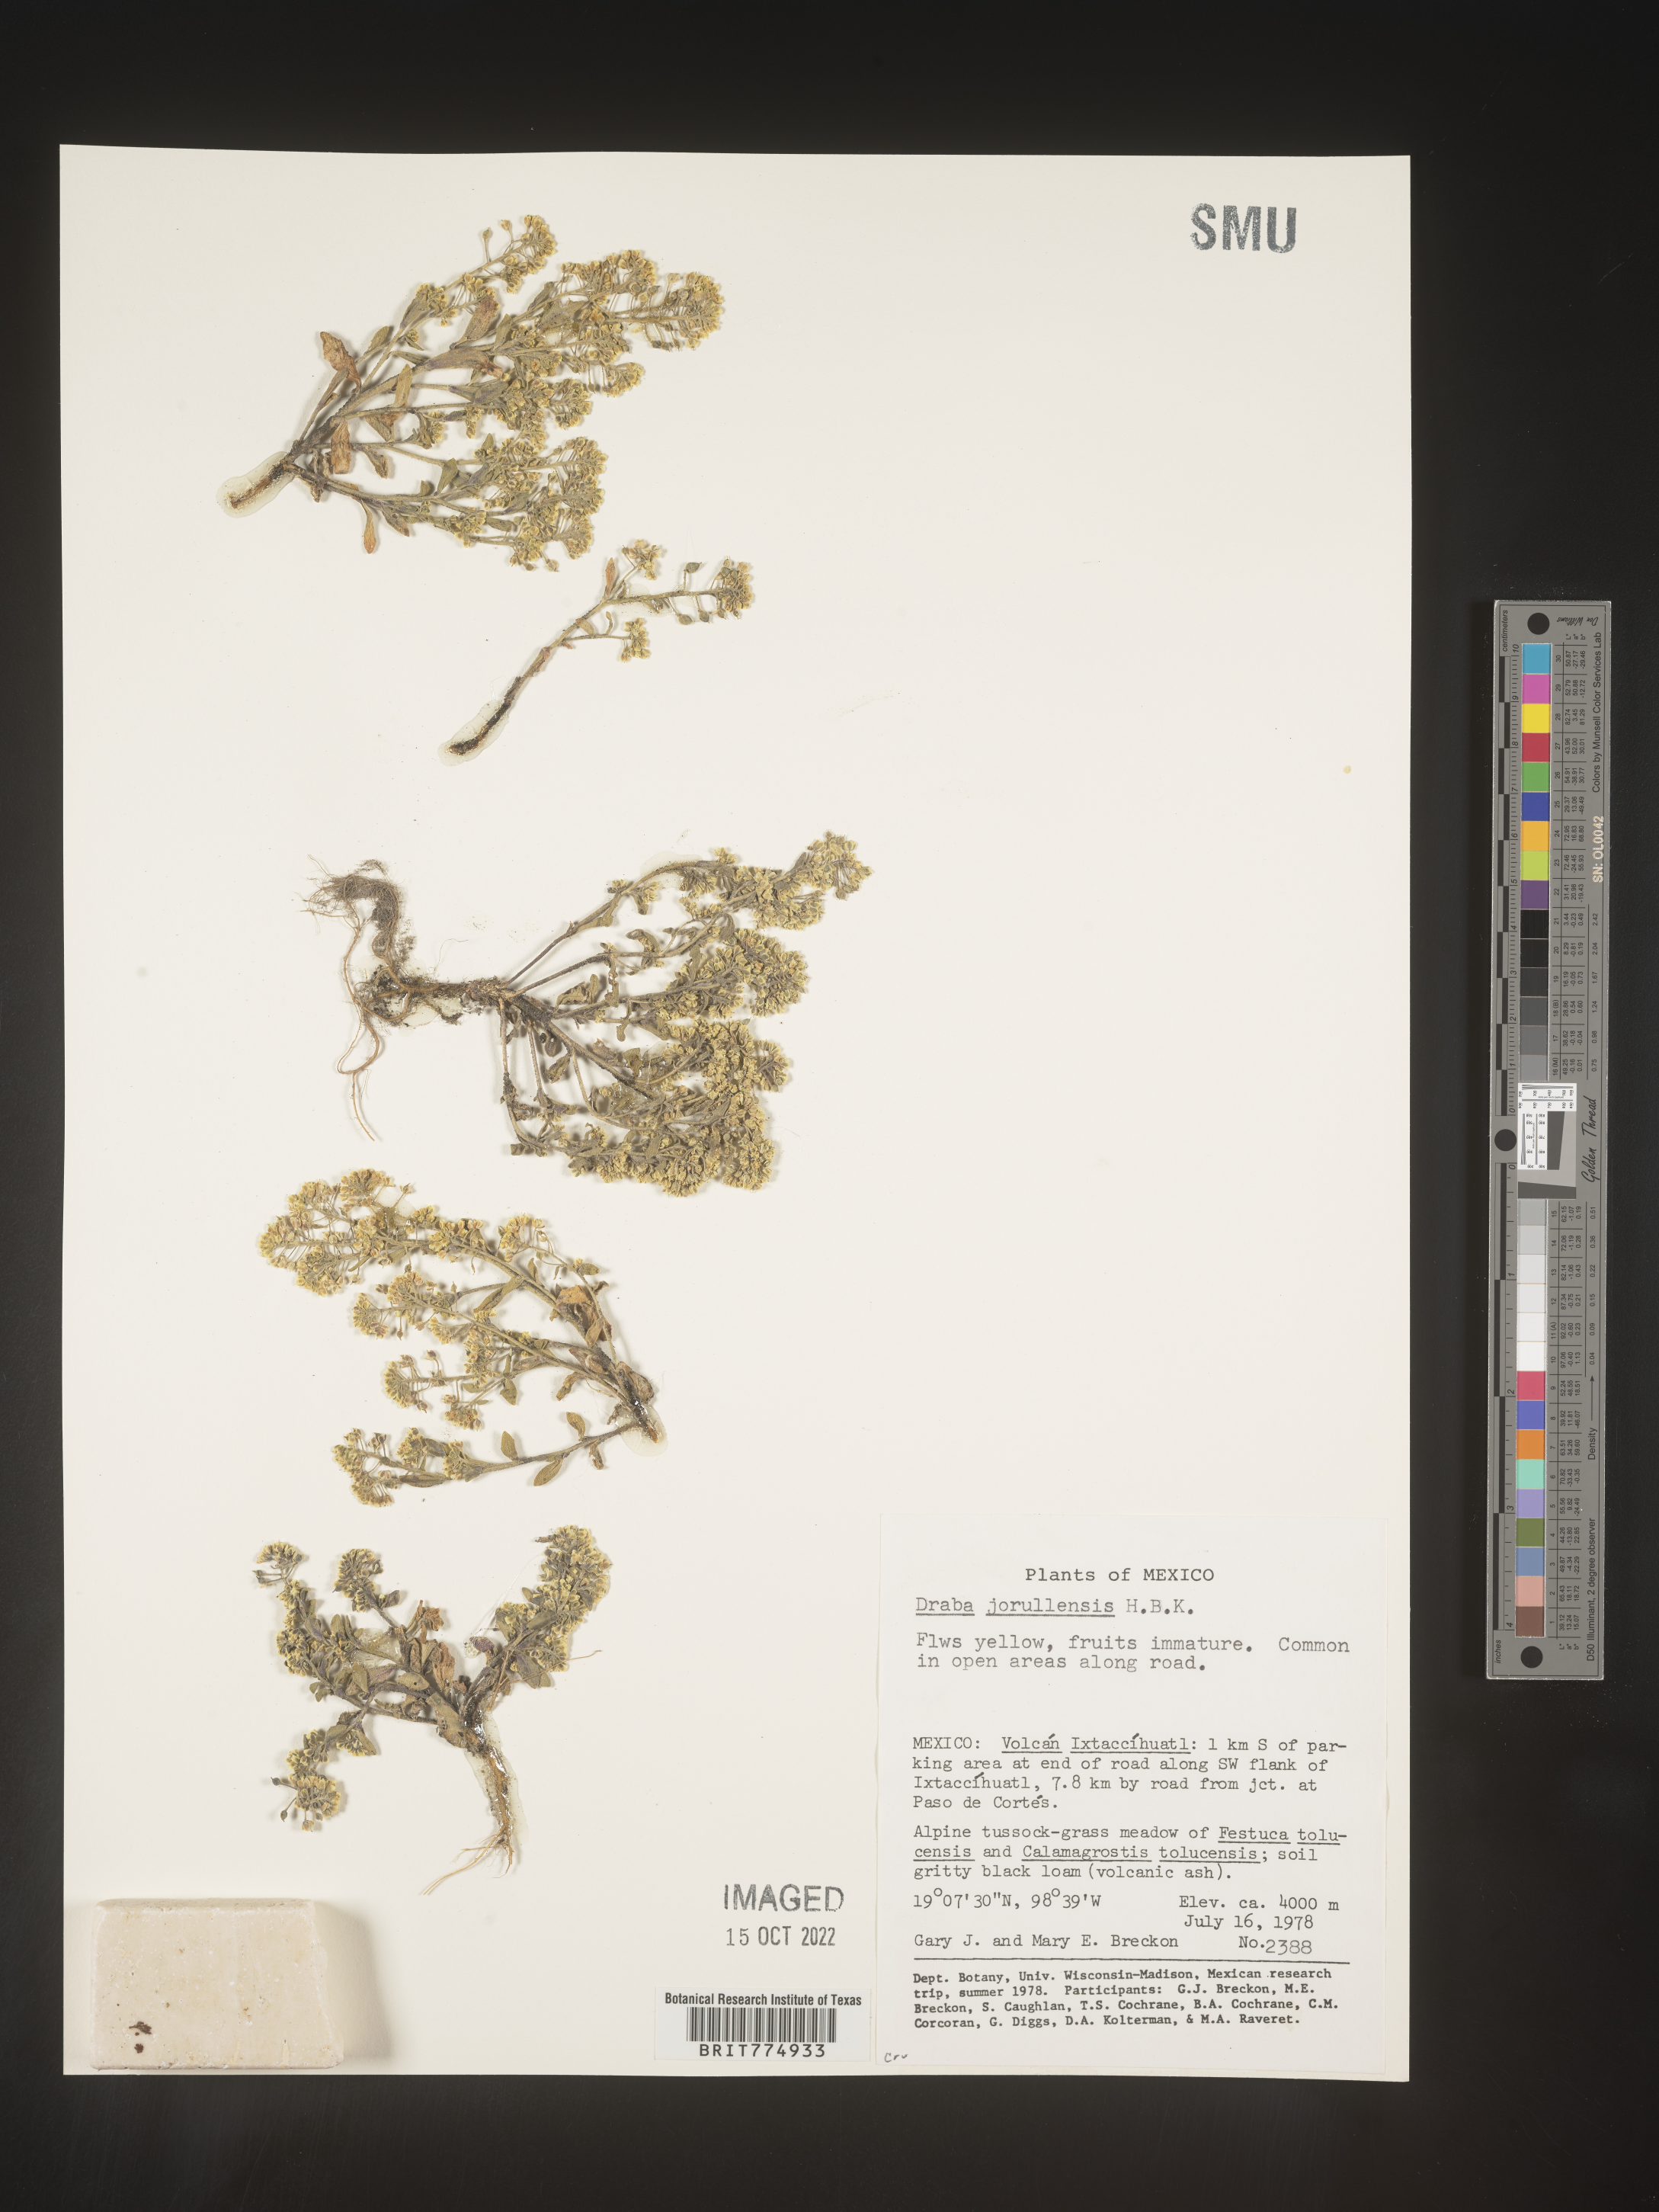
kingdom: Plantae
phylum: Tracheophyta
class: Magnoliopsida
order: Brassicales
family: Brassicaceae
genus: Draba
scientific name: Draba
